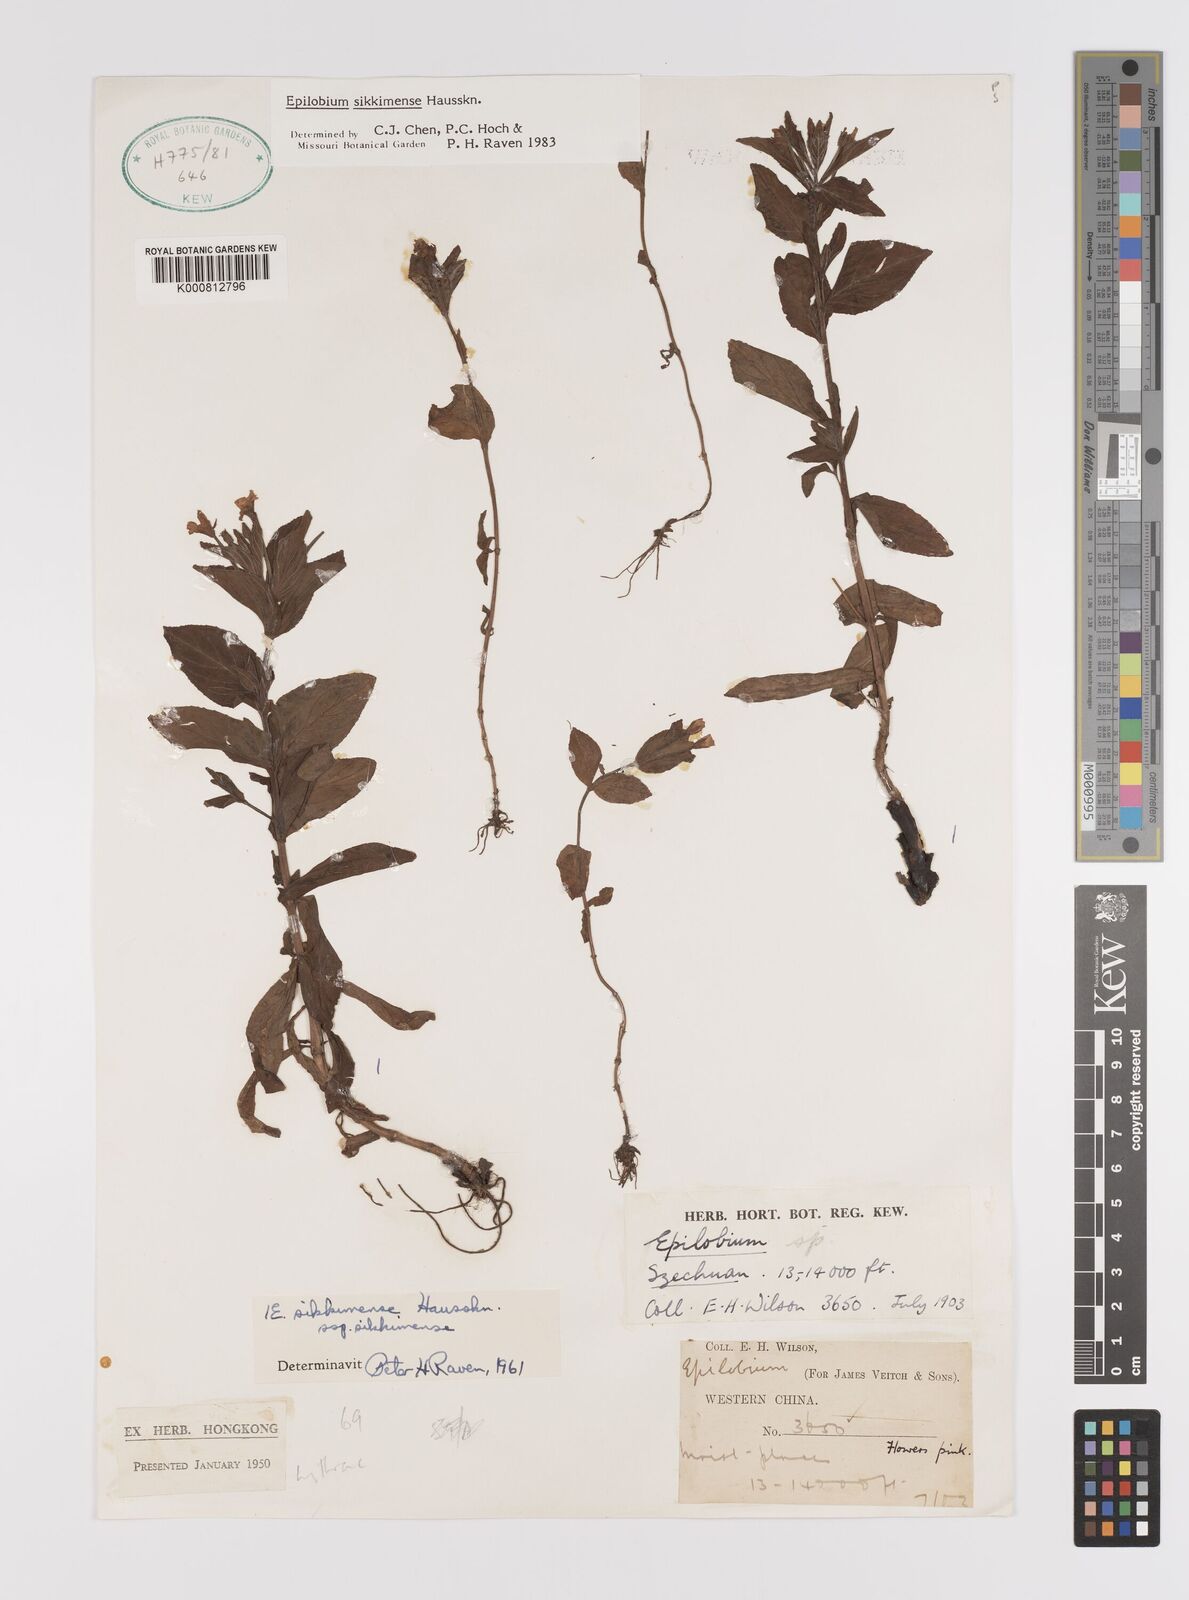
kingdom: Plantae
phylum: Tracheophyta
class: Magnoliopsida
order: Myrtales
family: Onagraceae
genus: Epilobium
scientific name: Epilobium sikkimense
